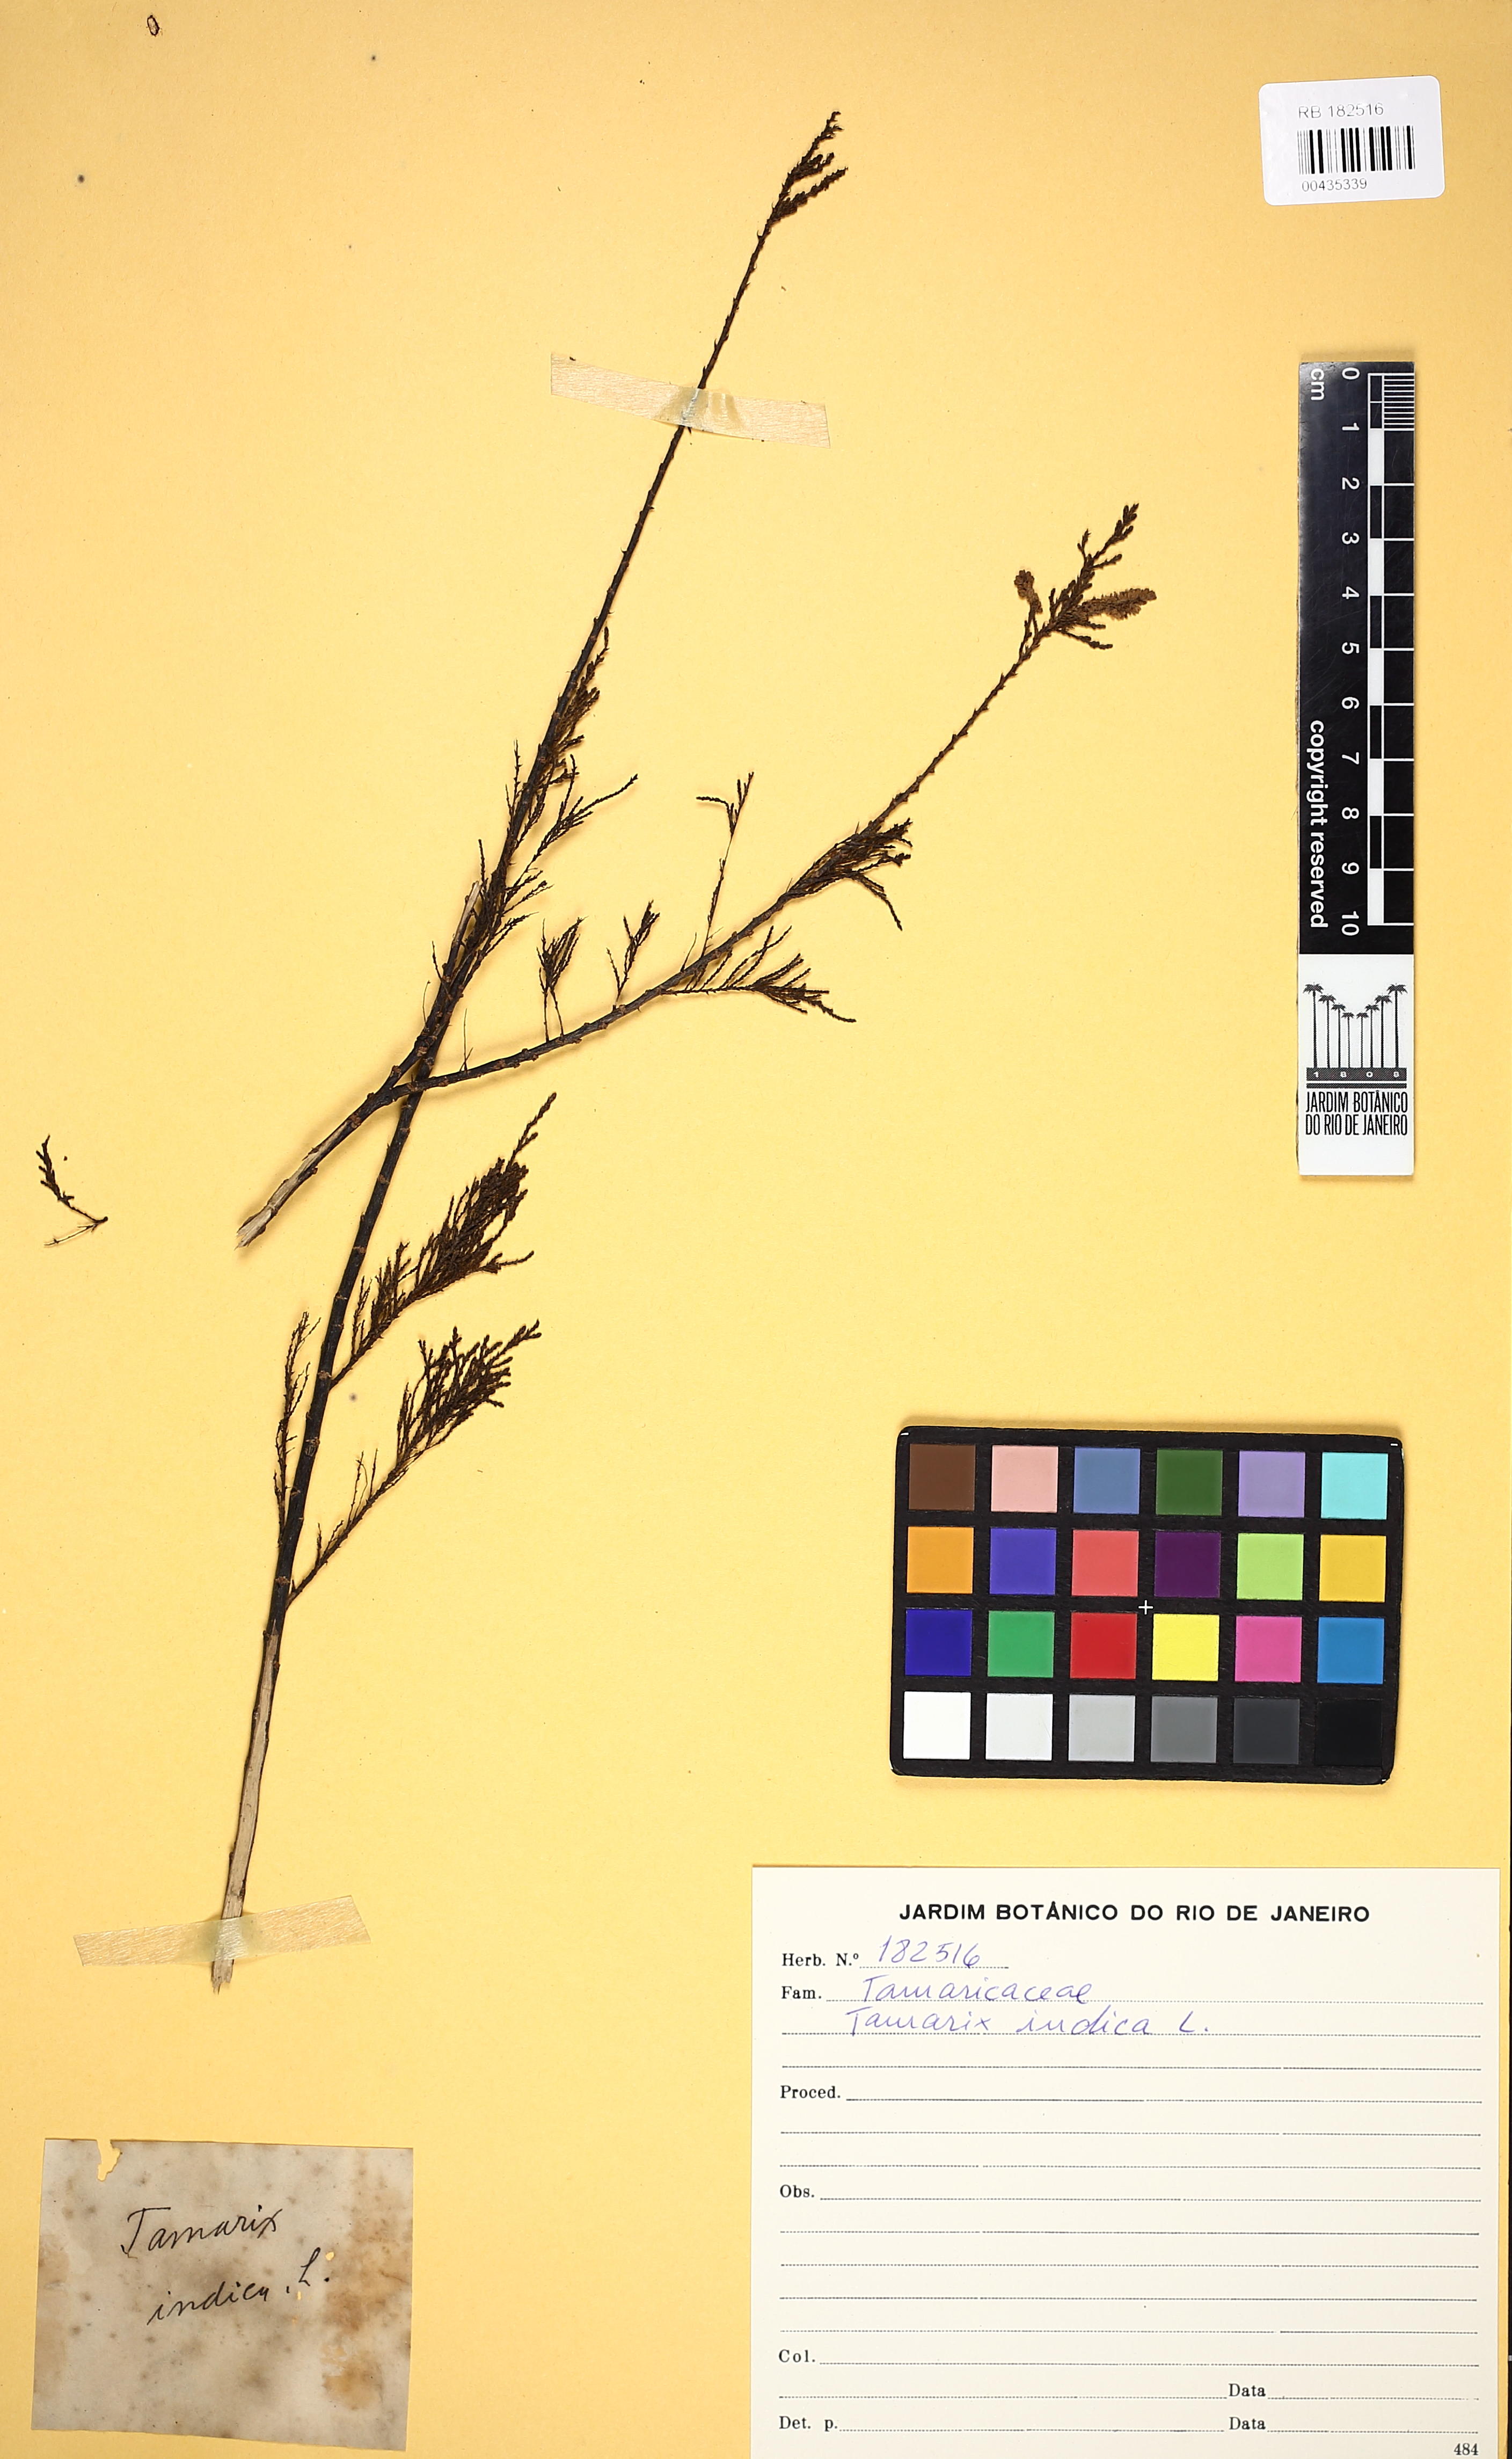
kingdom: Plantae
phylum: Tracheophyta
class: Magnoliopsida
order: Caryophyllales
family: Tamaricaceae
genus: Tamarix
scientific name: Tamarix indica
